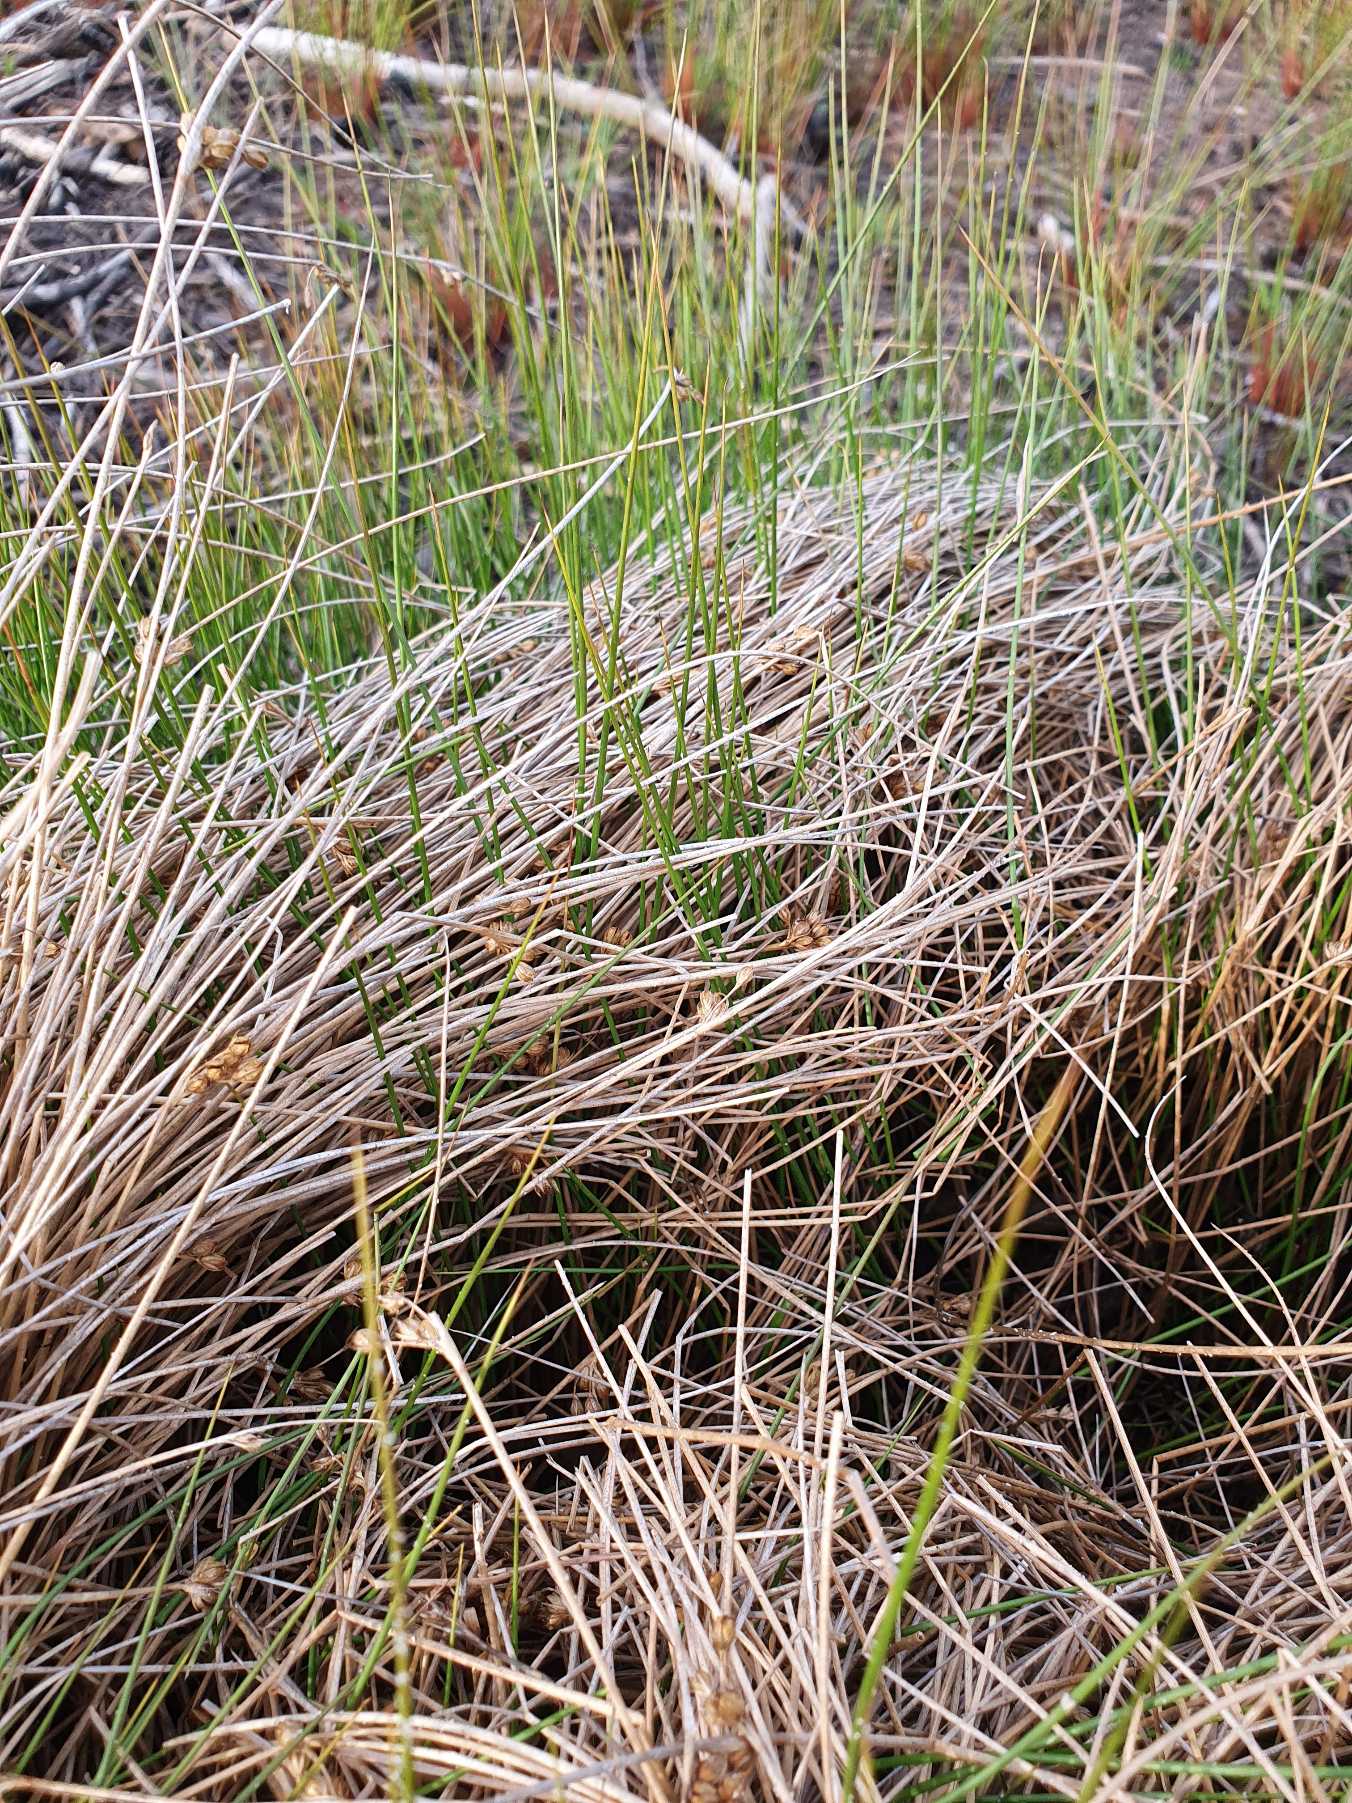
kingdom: Plantae
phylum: Tracheophyta
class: Liliopsida
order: Poales
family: Juncaceae
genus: Juncus
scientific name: Juncus filiformis
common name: Tråd-siv
